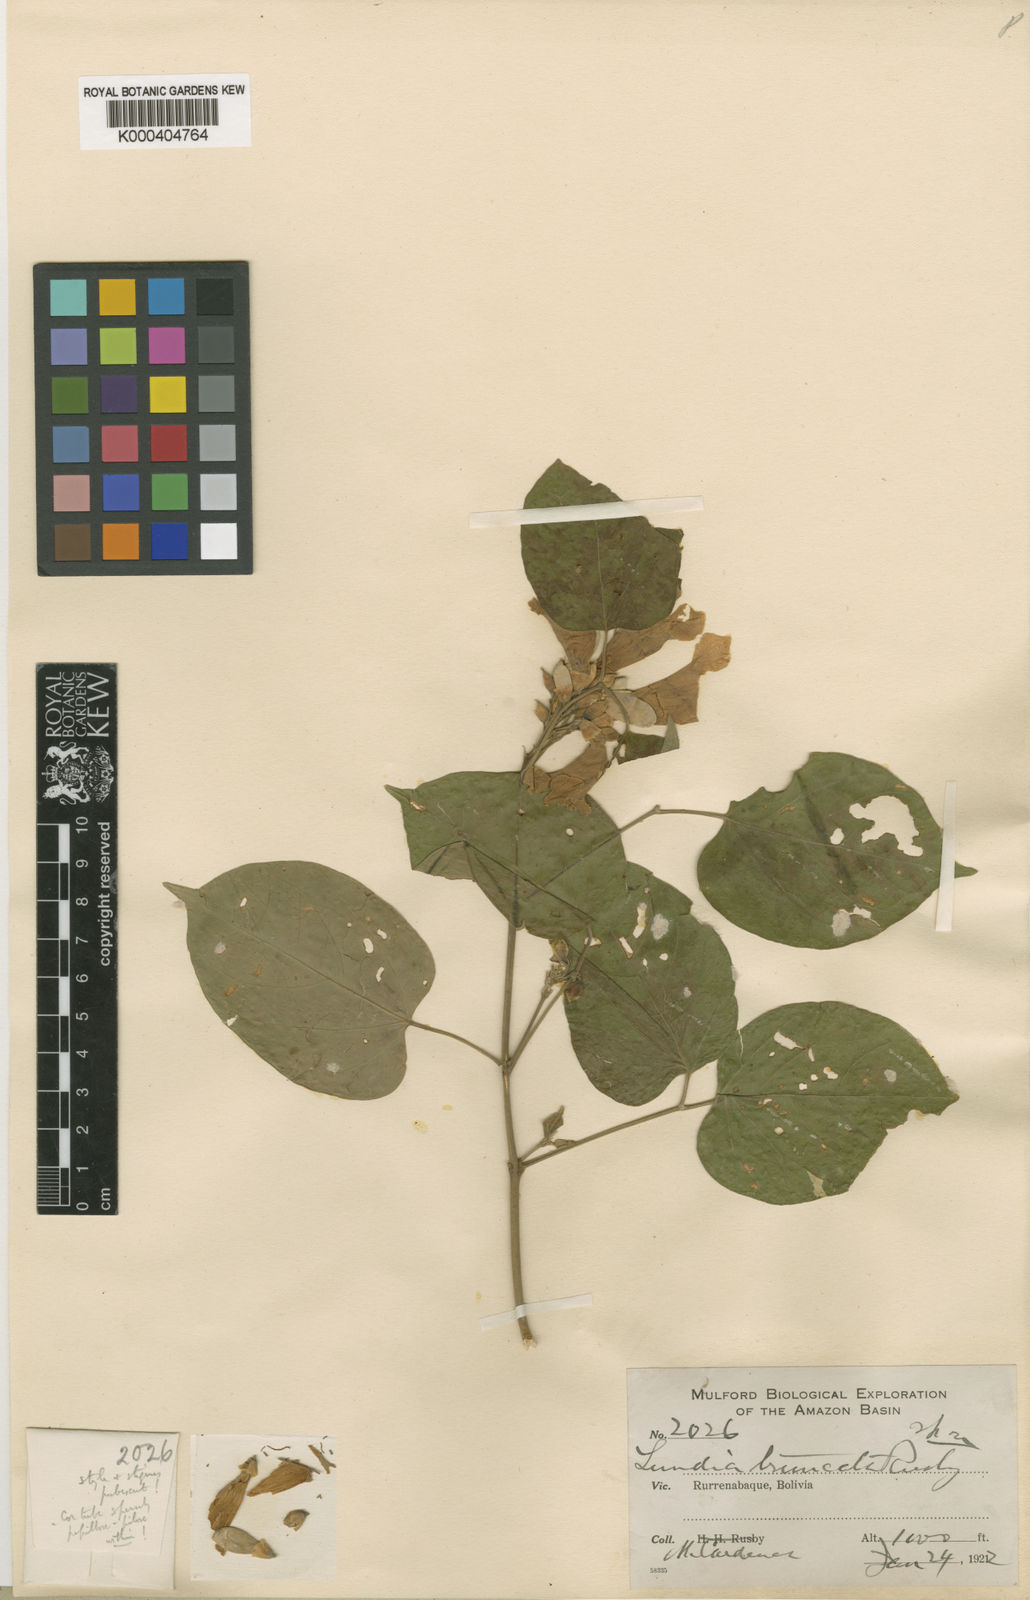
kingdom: Plantae
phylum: Tracheophyta
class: Magnoliopsida
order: Lamiales
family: Bignoniaceae
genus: Lundia
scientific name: Lundia corymbifera
